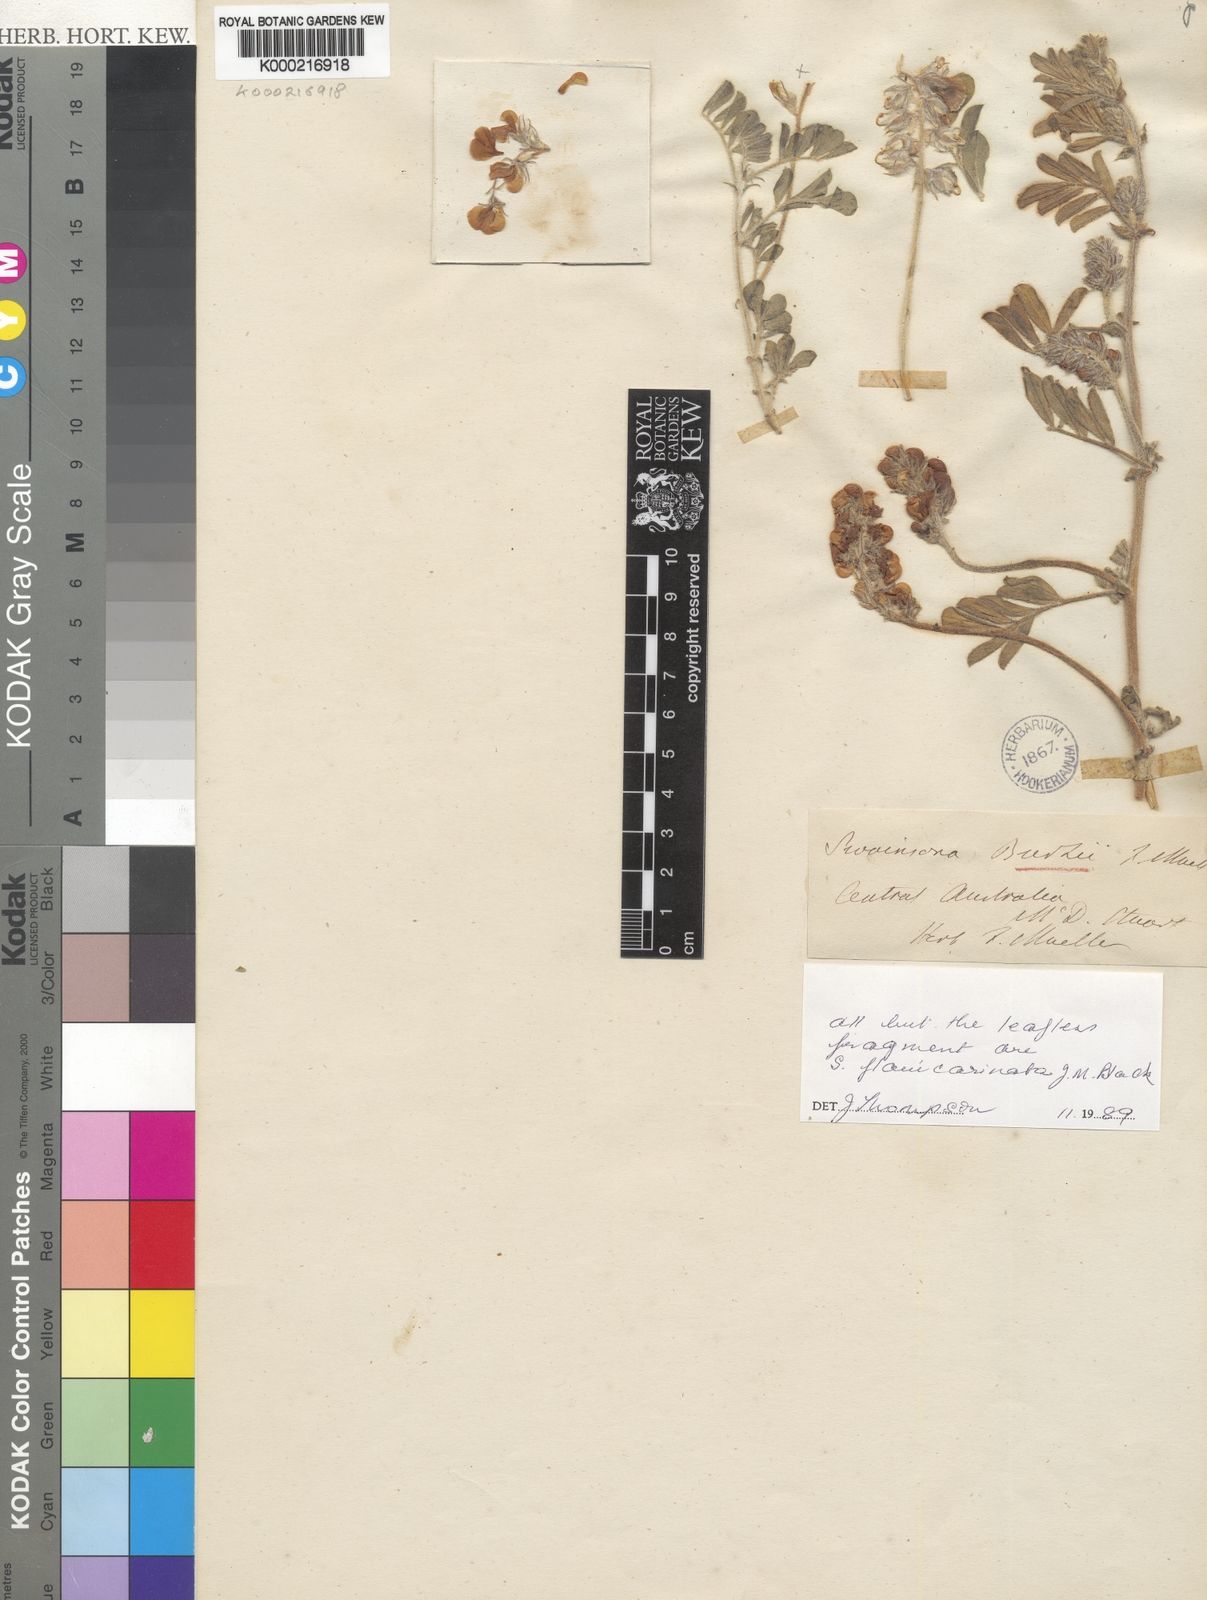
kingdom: Plantae
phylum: Tracheophyta
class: Magnoliopsida
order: Fabales
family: Fabaceae
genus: Swainsona
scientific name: Swainsona
